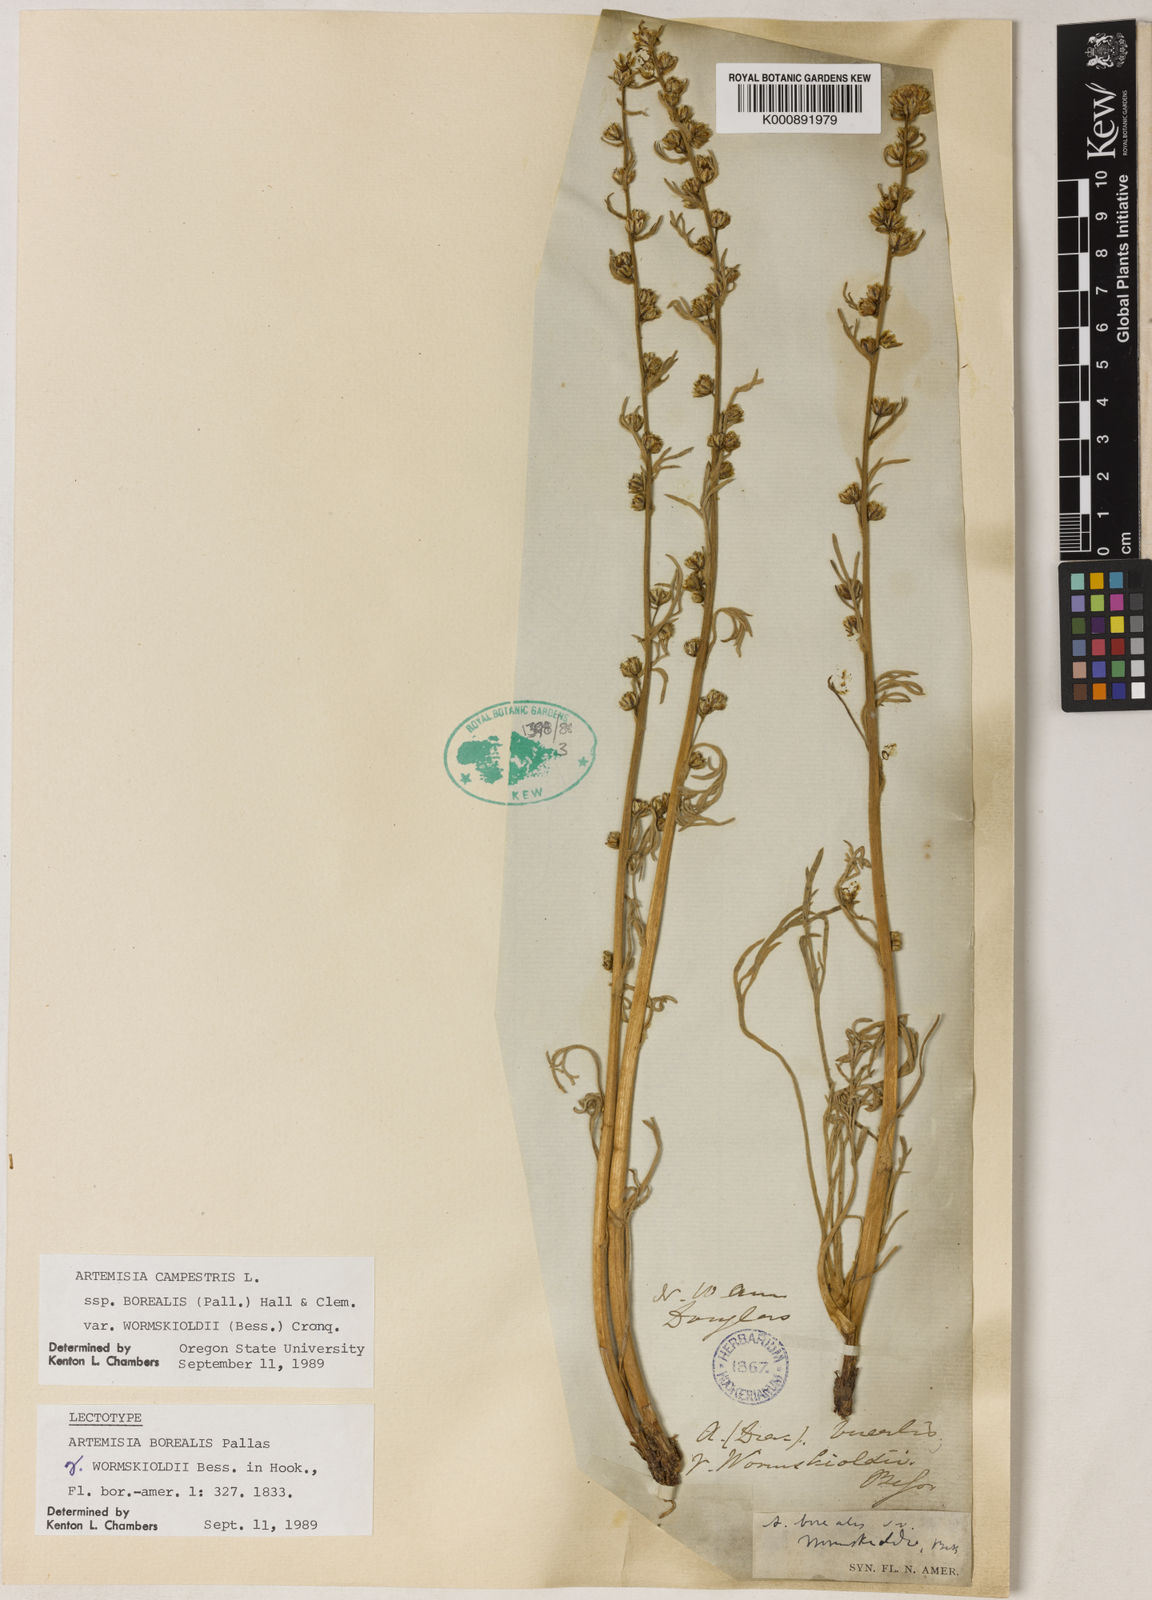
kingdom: Plantae
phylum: Tracheophyta
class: Magnoliopsida
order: Asterales
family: Asteraceae
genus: Artemisia
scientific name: Artemisia borealis
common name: Boreal sage
